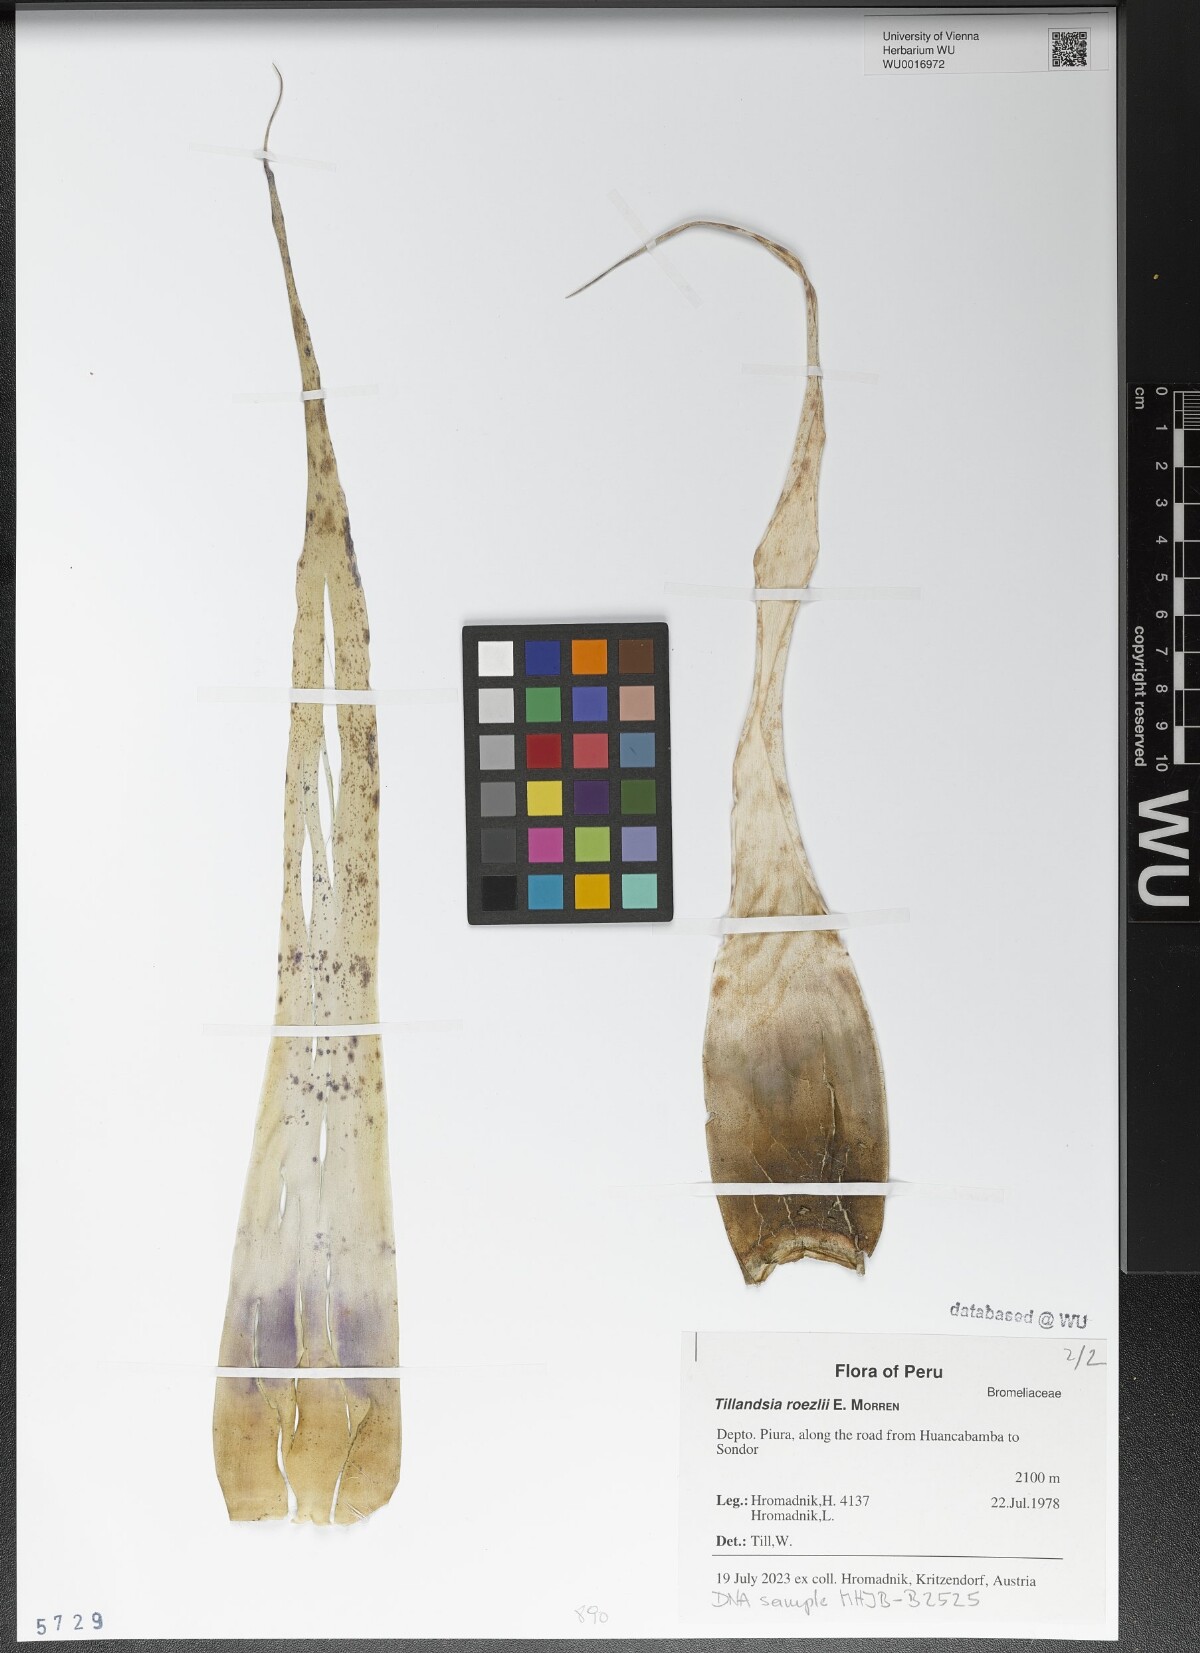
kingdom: Plantae
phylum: Tracheophyta
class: Liliopsida
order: Poales
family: Bromeliaceae
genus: Tillandsia
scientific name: Tillandsia roezlii
